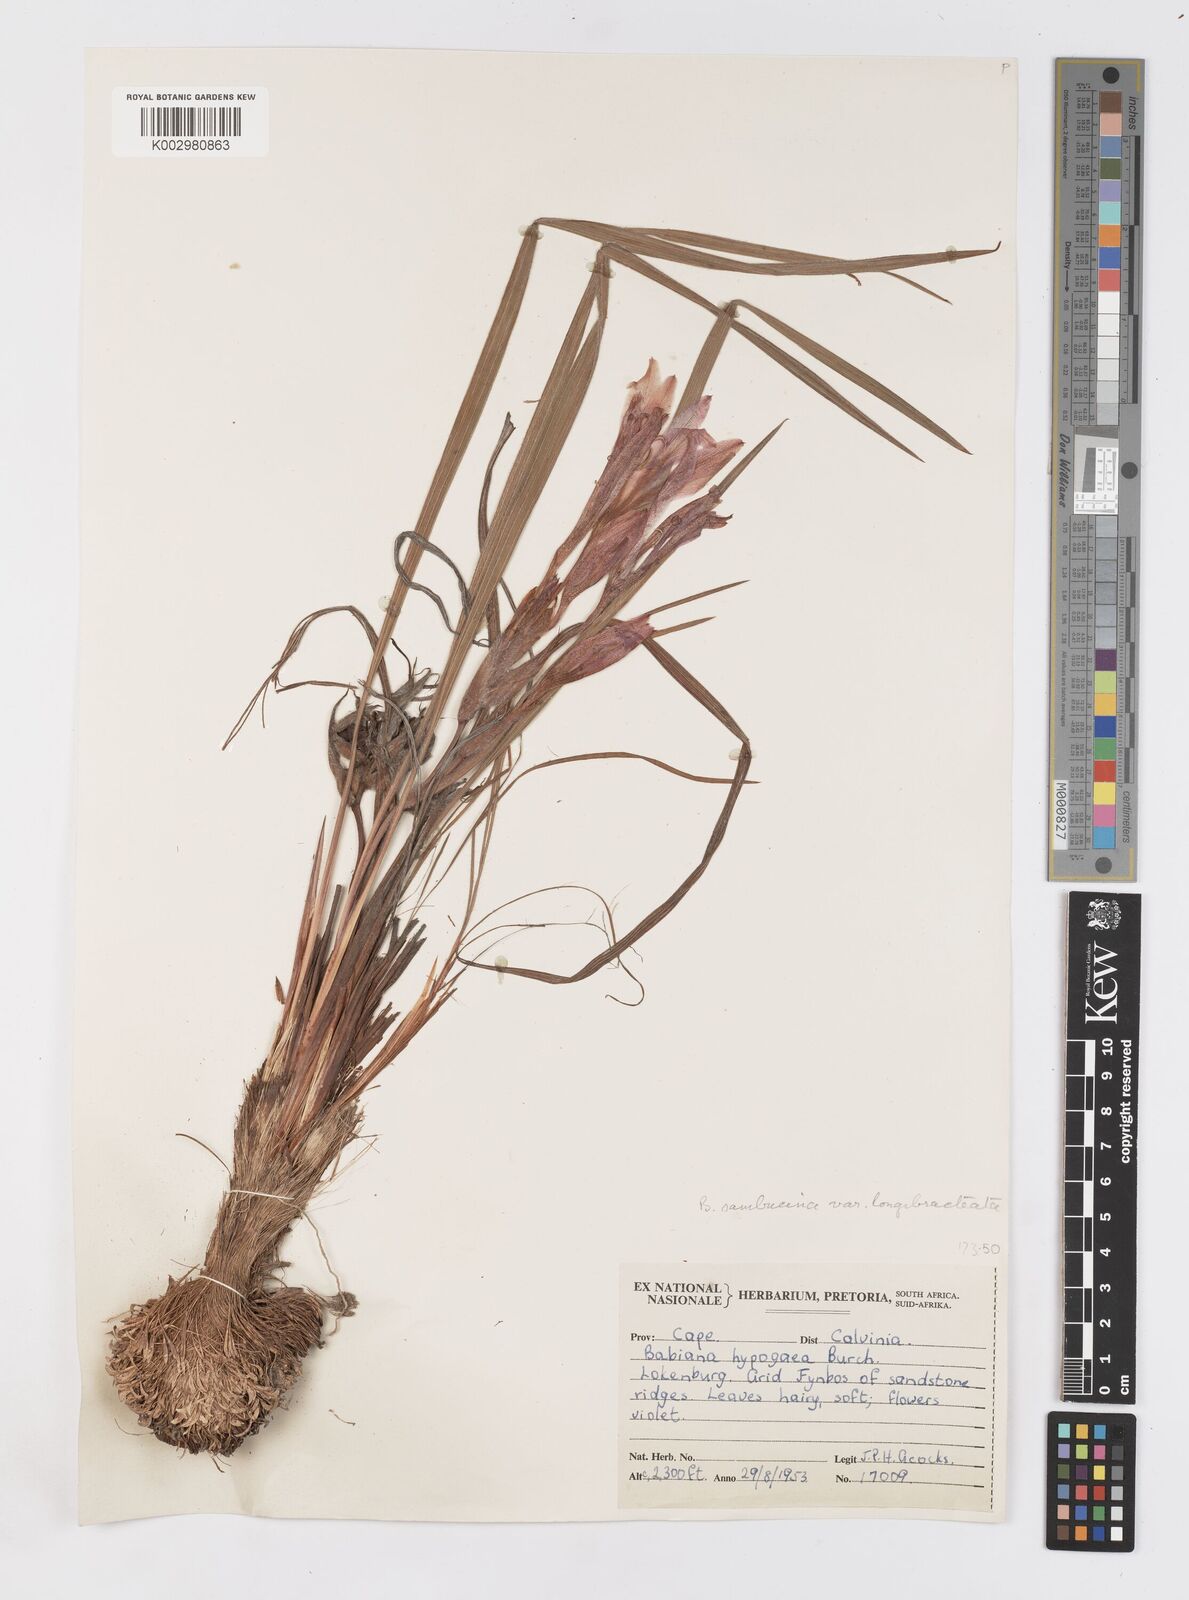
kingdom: Plantae
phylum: Tracheophyta
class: Liliopsida
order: Asparagales
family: Iridaceae
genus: Babiana
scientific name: Babiana sambucina
